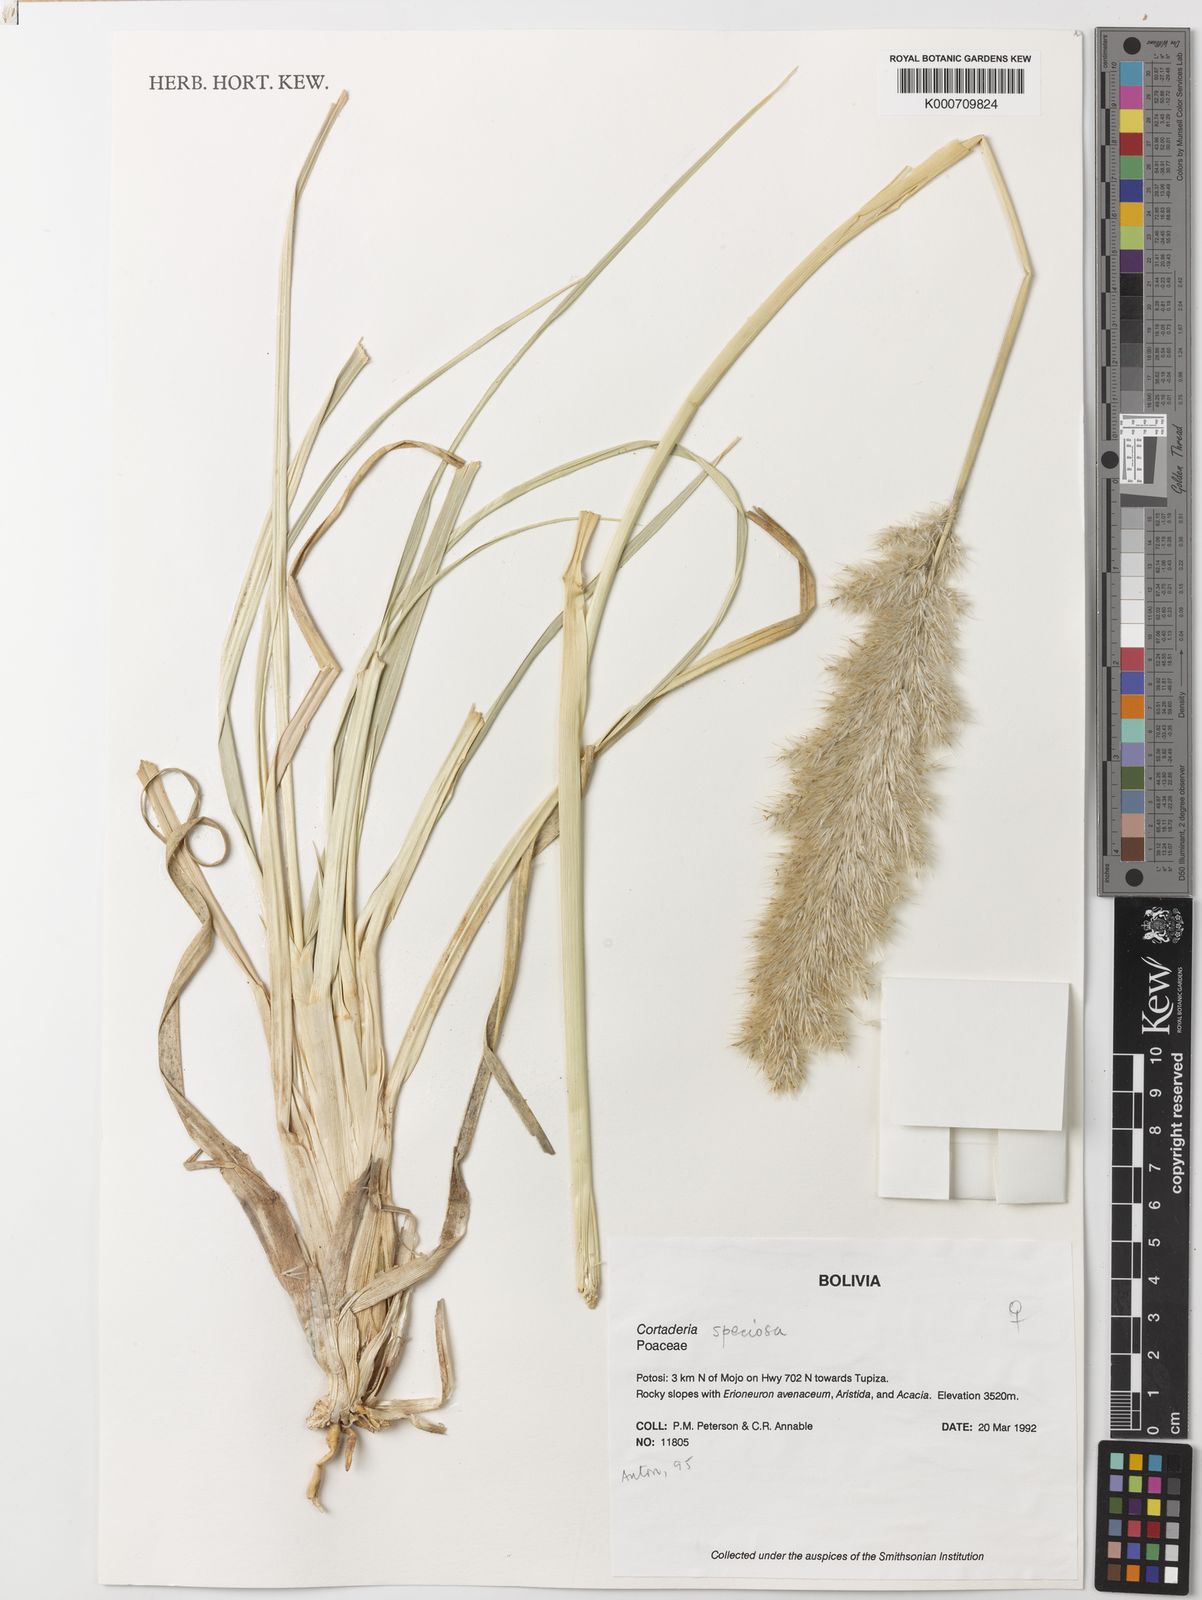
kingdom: Plantae
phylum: Tracheophyta
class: Liliopsida
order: Poales
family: Poaceae
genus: Cortaderia
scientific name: Cortaderia speciosa
